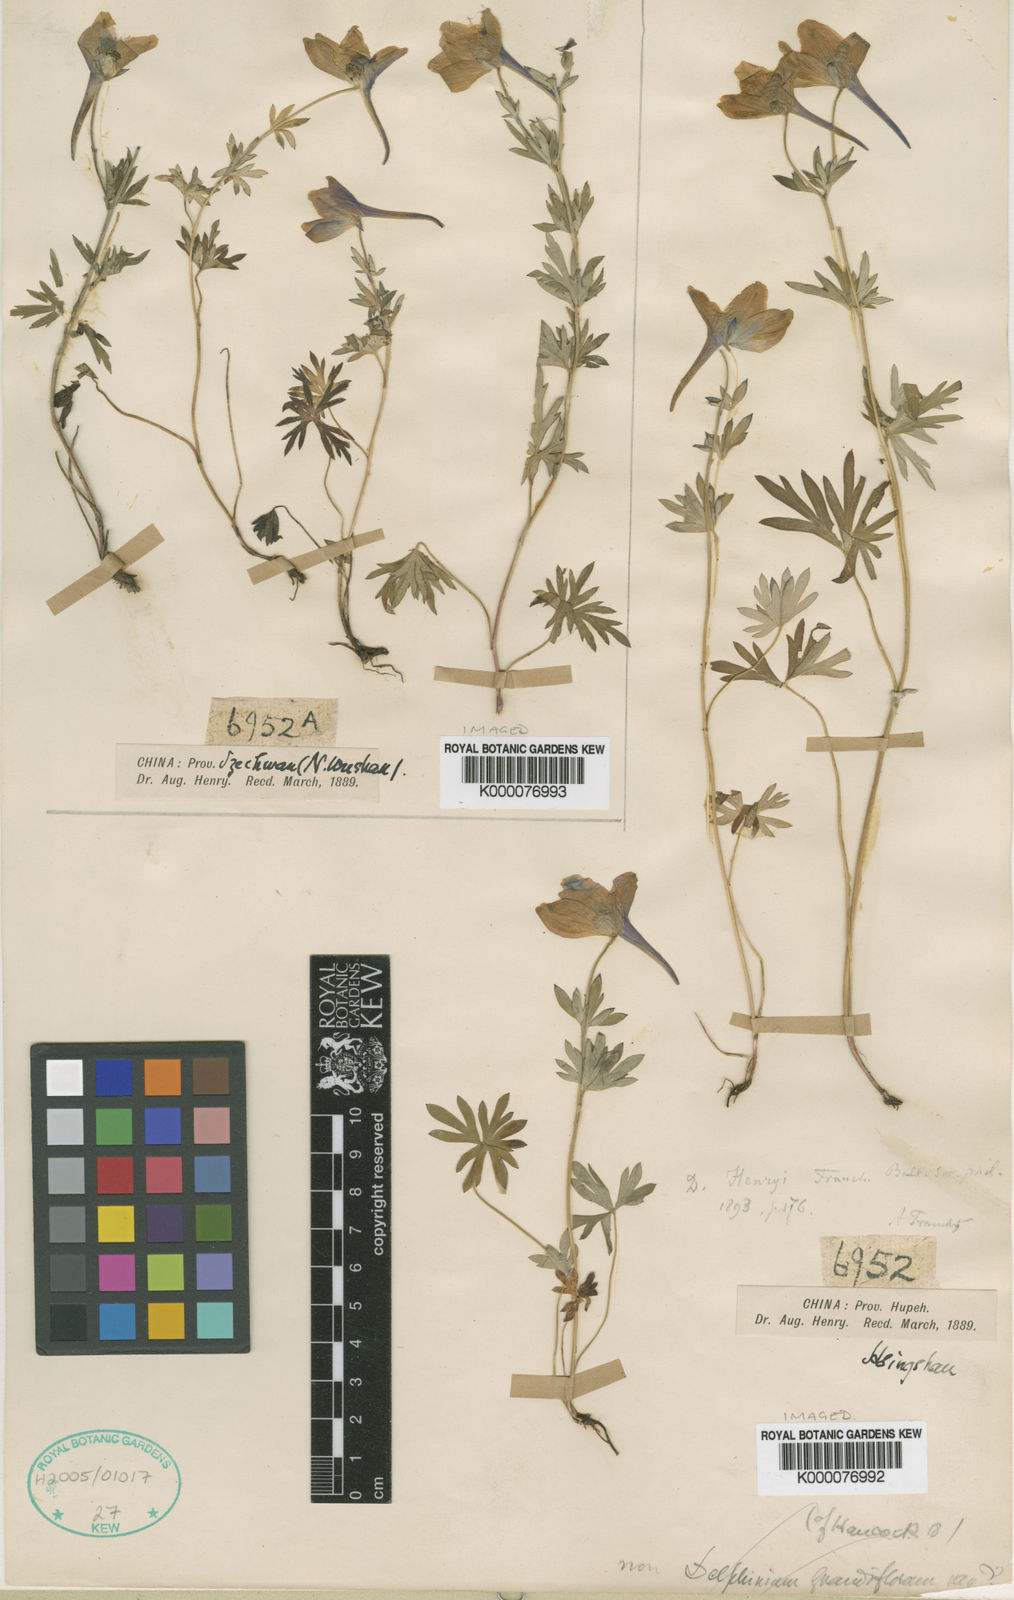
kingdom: Plantae
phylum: Tracheophyta
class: Magnoliopsida
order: Ranunculales
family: Ranunculaceae
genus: Delphinium
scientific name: Delphinium henryi
